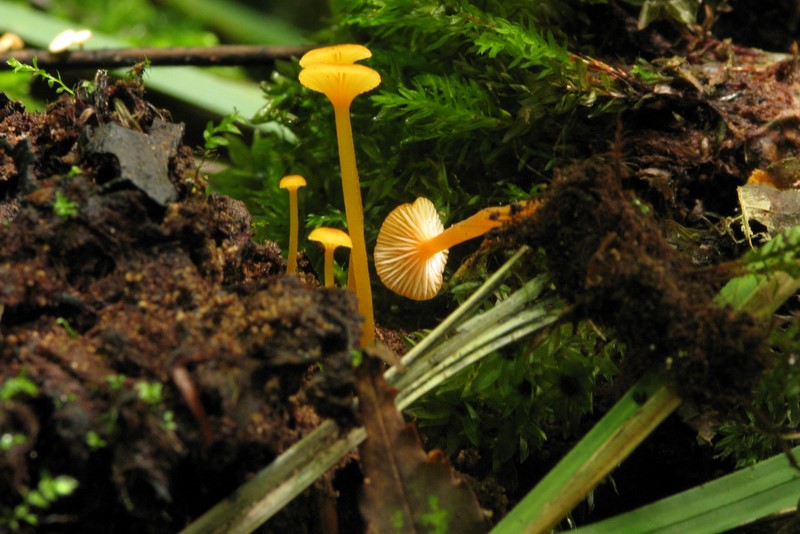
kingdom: Fungi
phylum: Basidiomycota
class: Agaricomycetes
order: Hymenochaetales
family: Rickenellaceae
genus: Rickenella
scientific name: Rickenella fibula
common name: orange mosnavlehat
